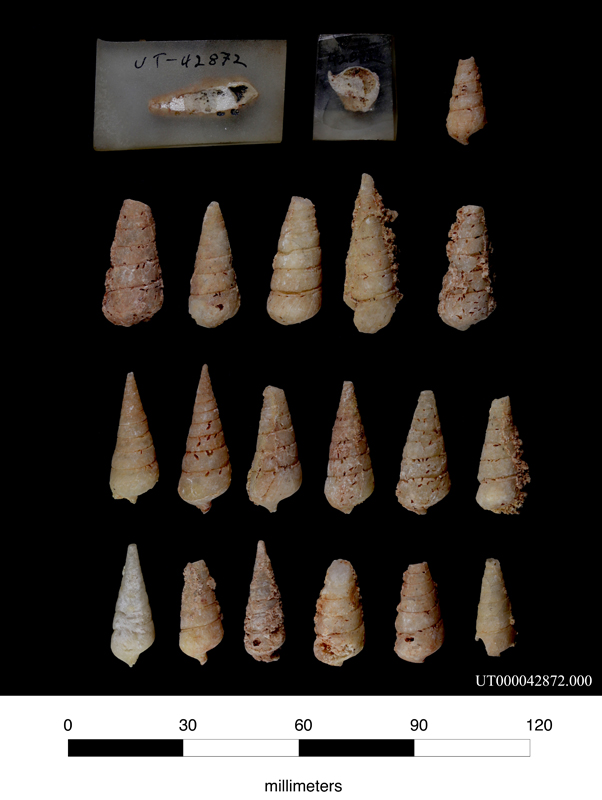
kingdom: Animalia
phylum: Mollusca
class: Gastropoda
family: Ceritellidae
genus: Ceritella
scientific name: Ceritella
